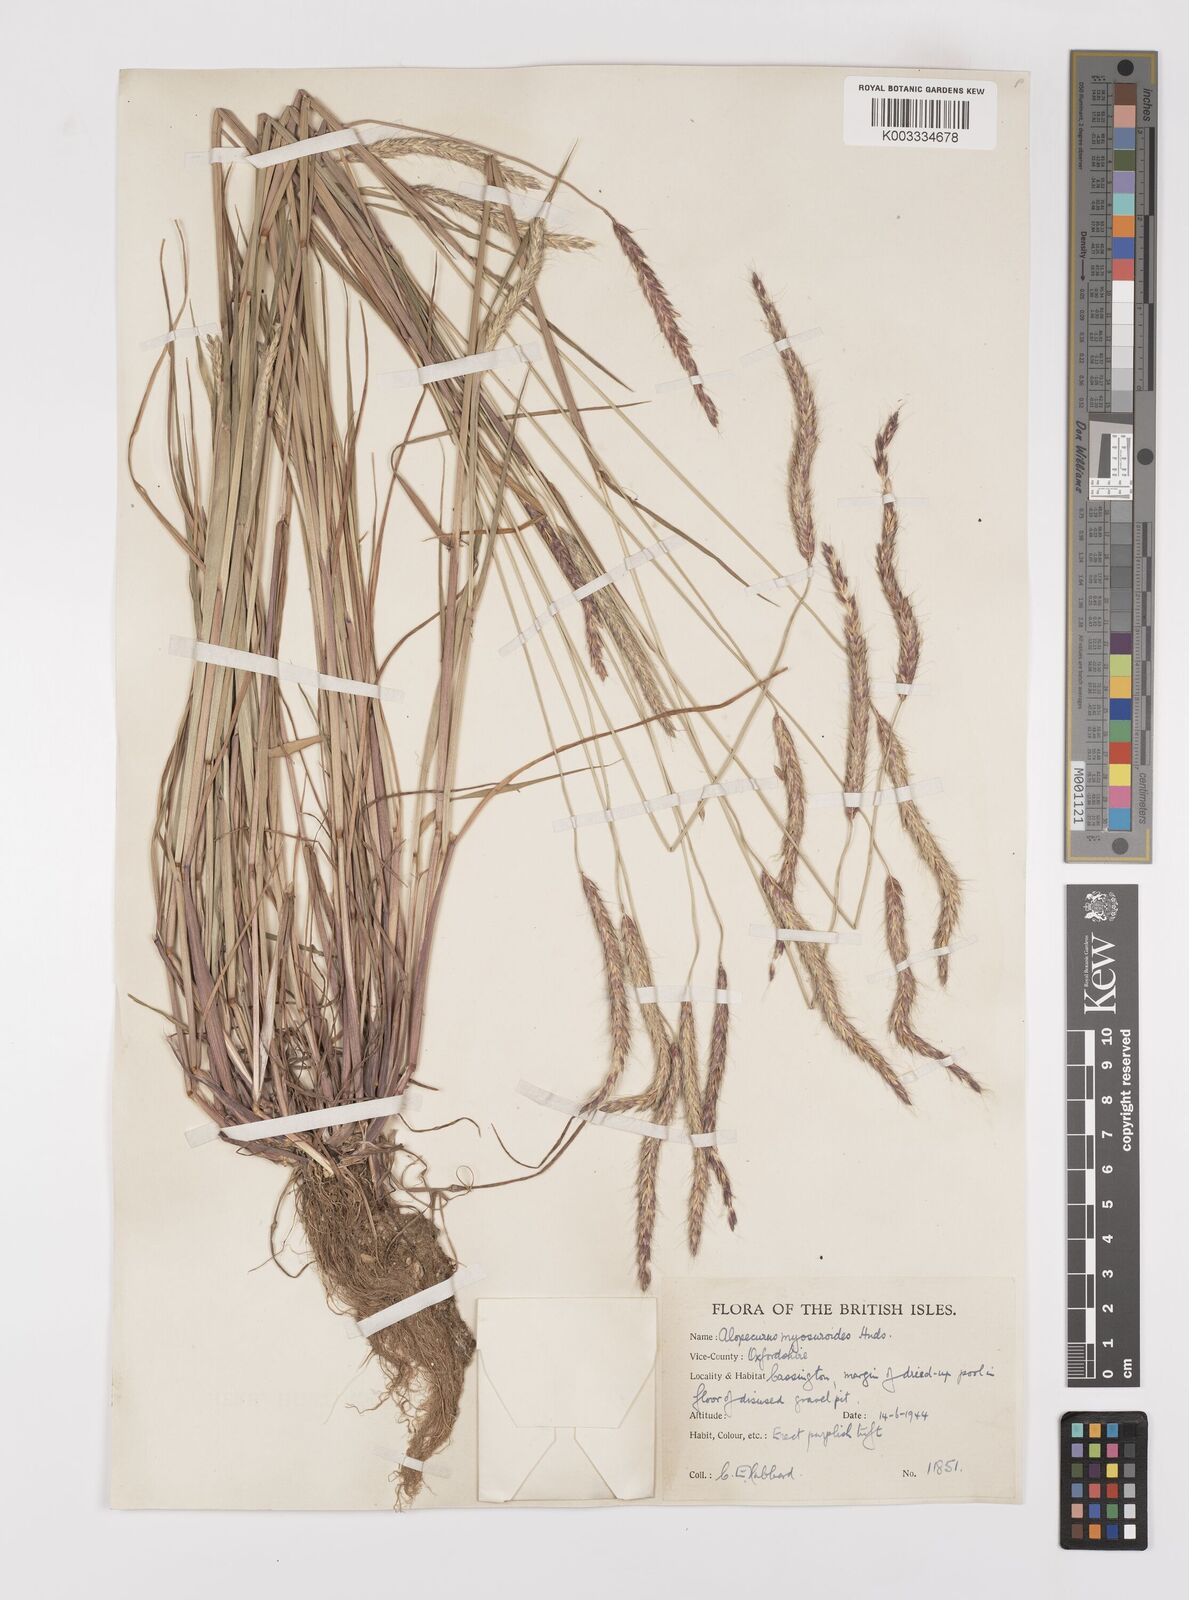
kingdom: Plantae
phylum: Tracheophyta
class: Liliopsida
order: Poales
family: Poaceae
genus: Alopecurus
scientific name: Alopecurus myosuroides
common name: Black-grass
